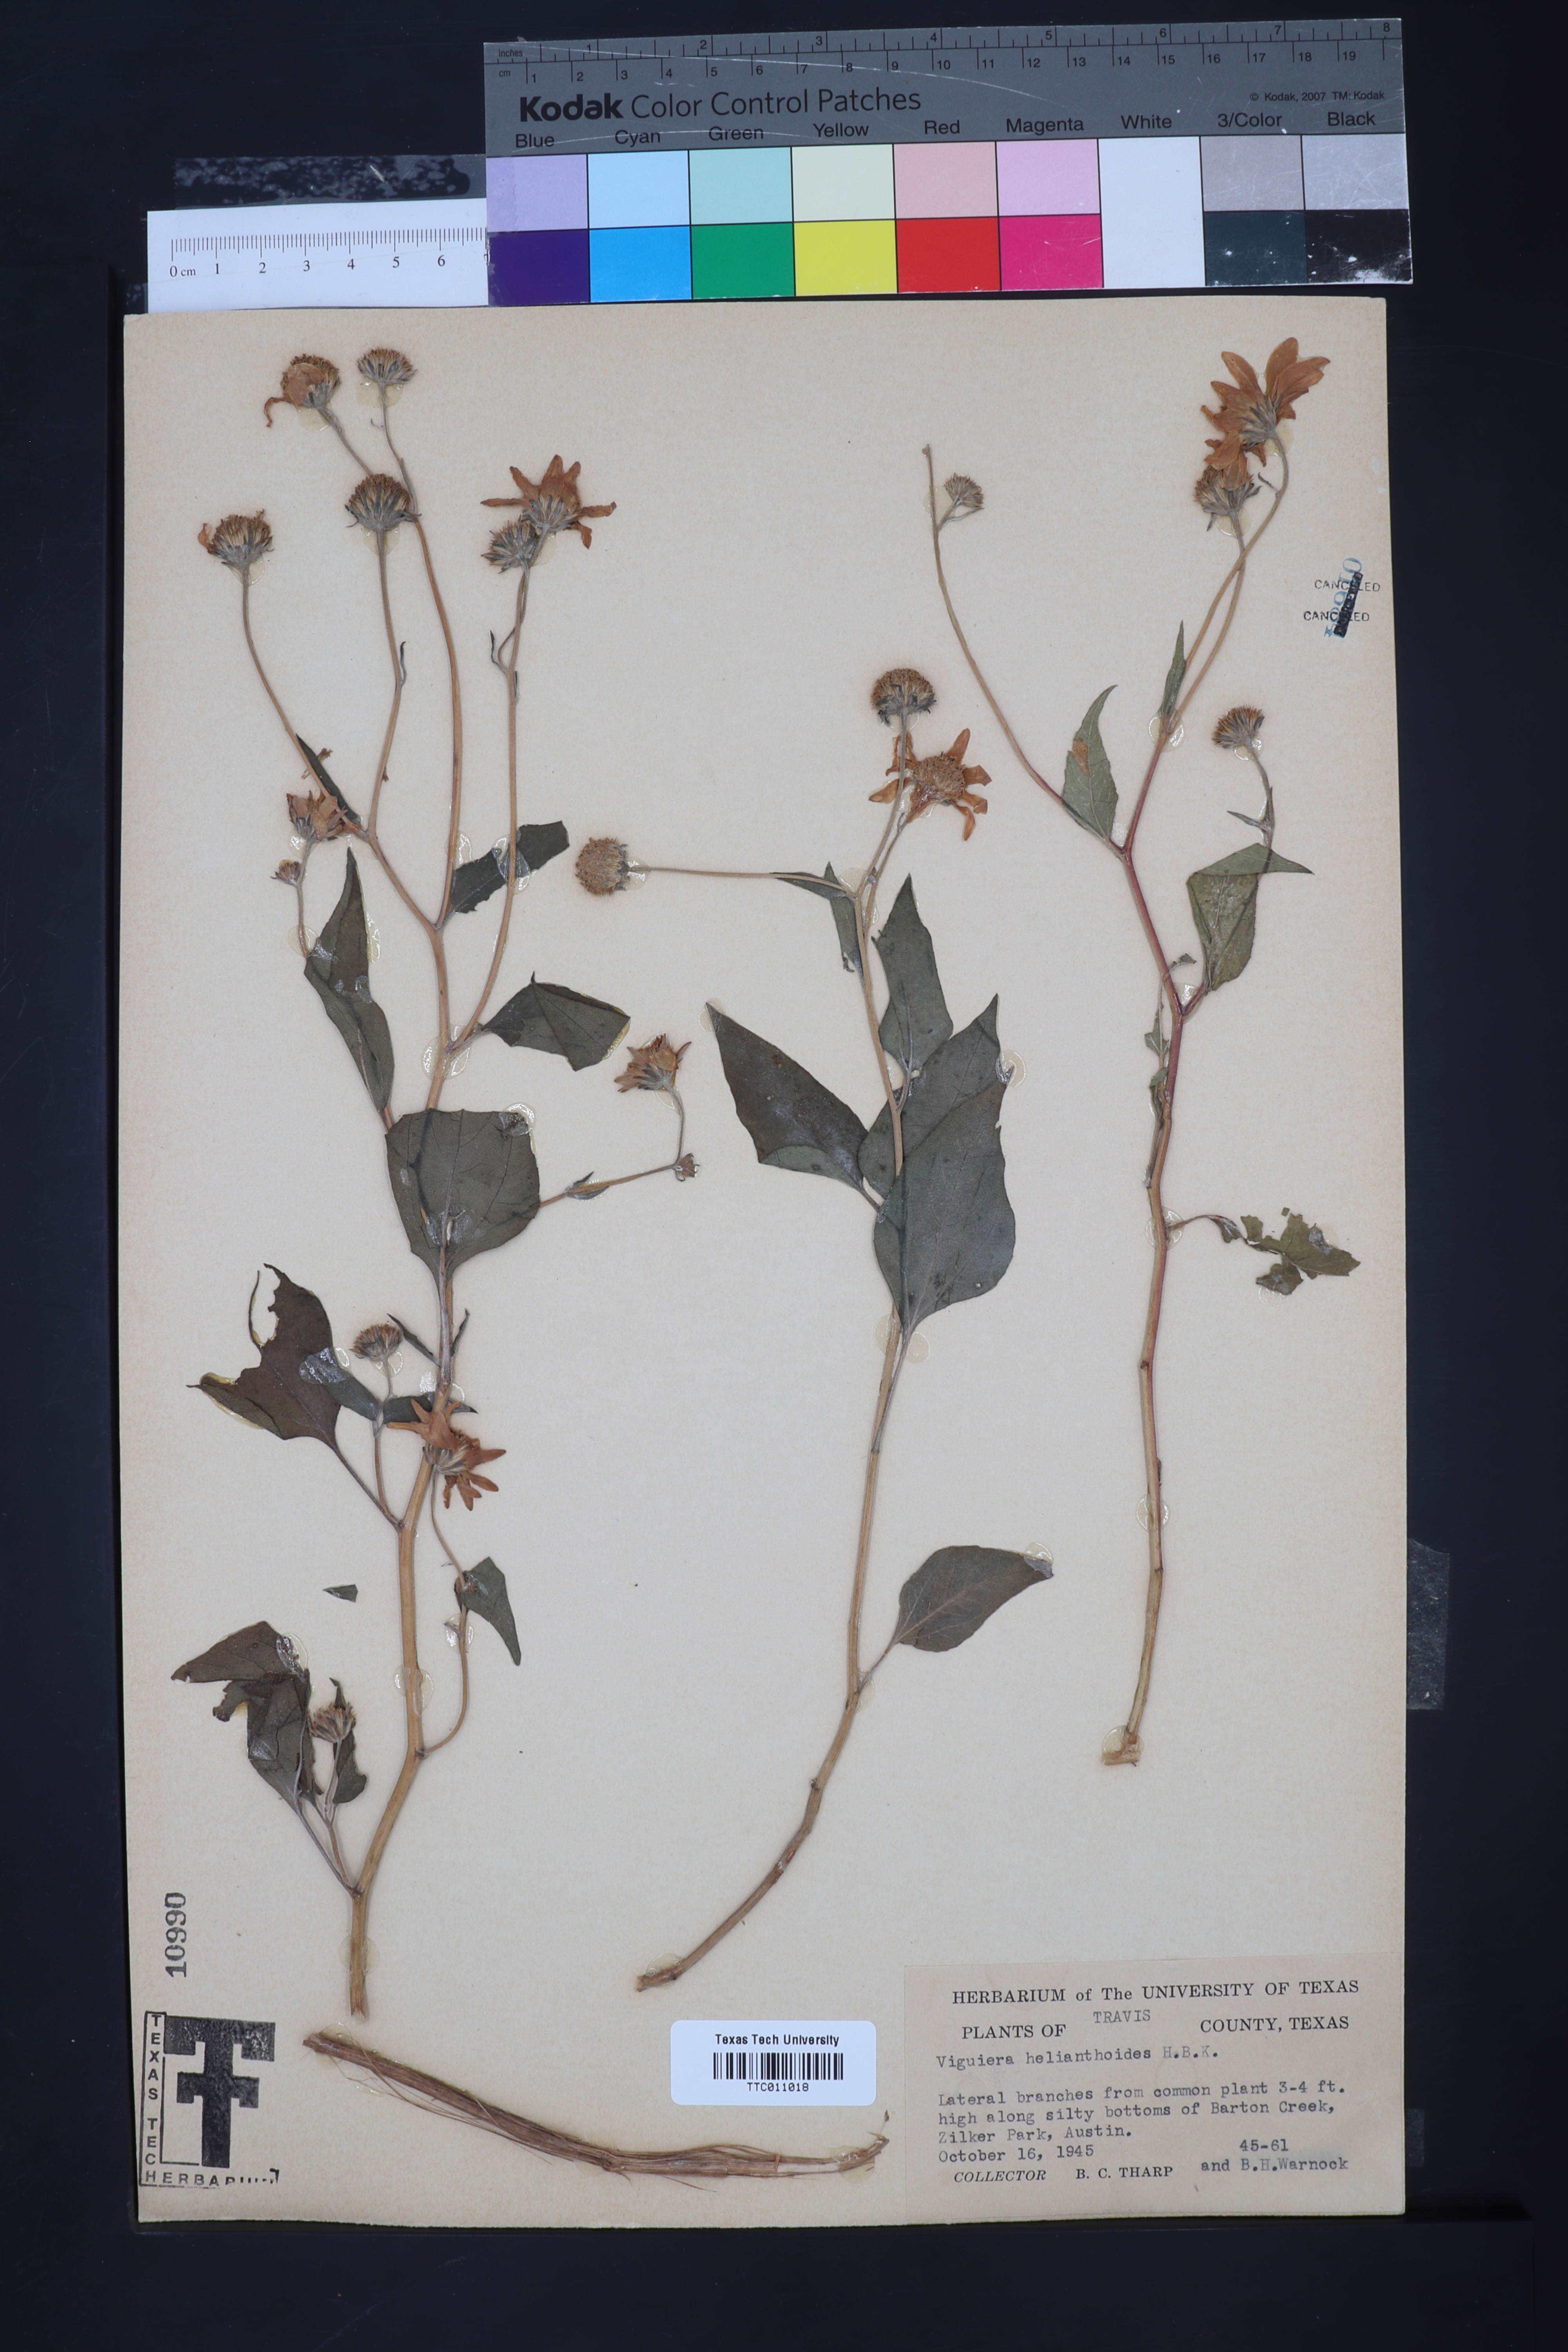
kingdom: Plantae
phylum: Tracheophyta
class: Magnoliopsida
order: Asterales
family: Asteraceae
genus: Viguiera
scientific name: Viguiera dentata
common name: Toothleaf
